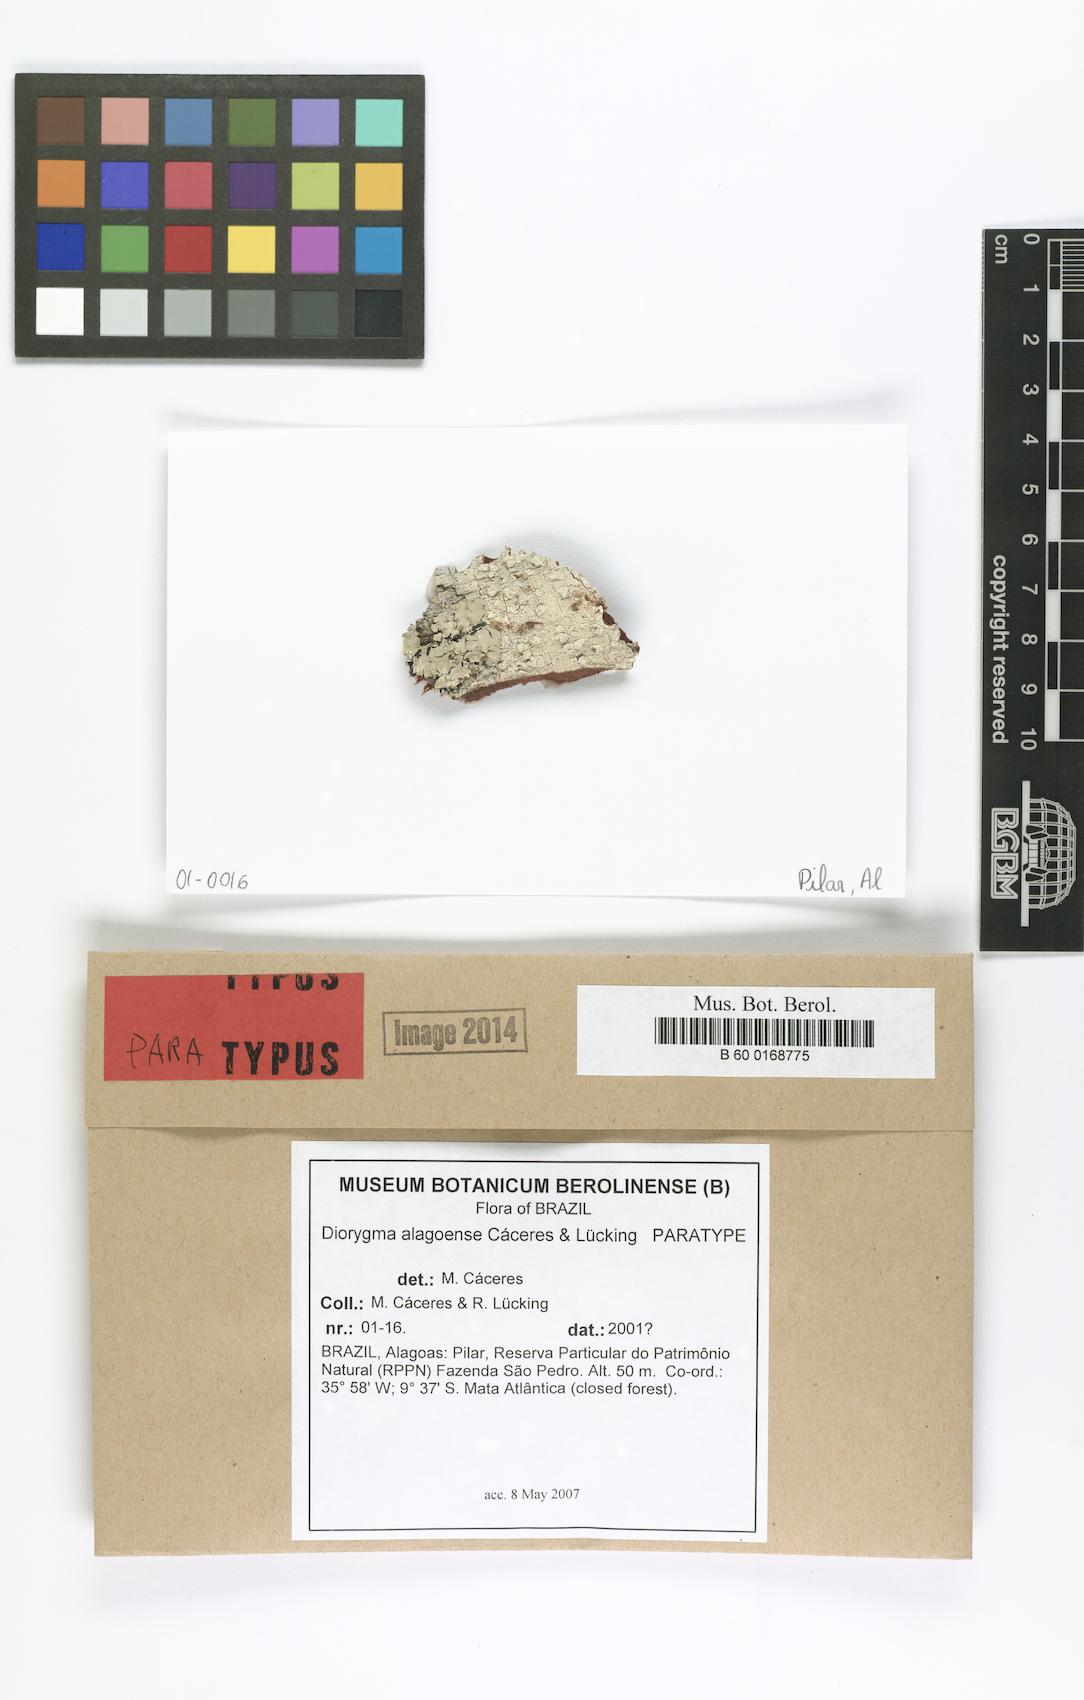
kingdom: Fungi
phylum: Ascomycota
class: Lecanoromycetes
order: Ostropales
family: Graphidaceae
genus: Diorygma
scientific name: Diorygma alagoense
